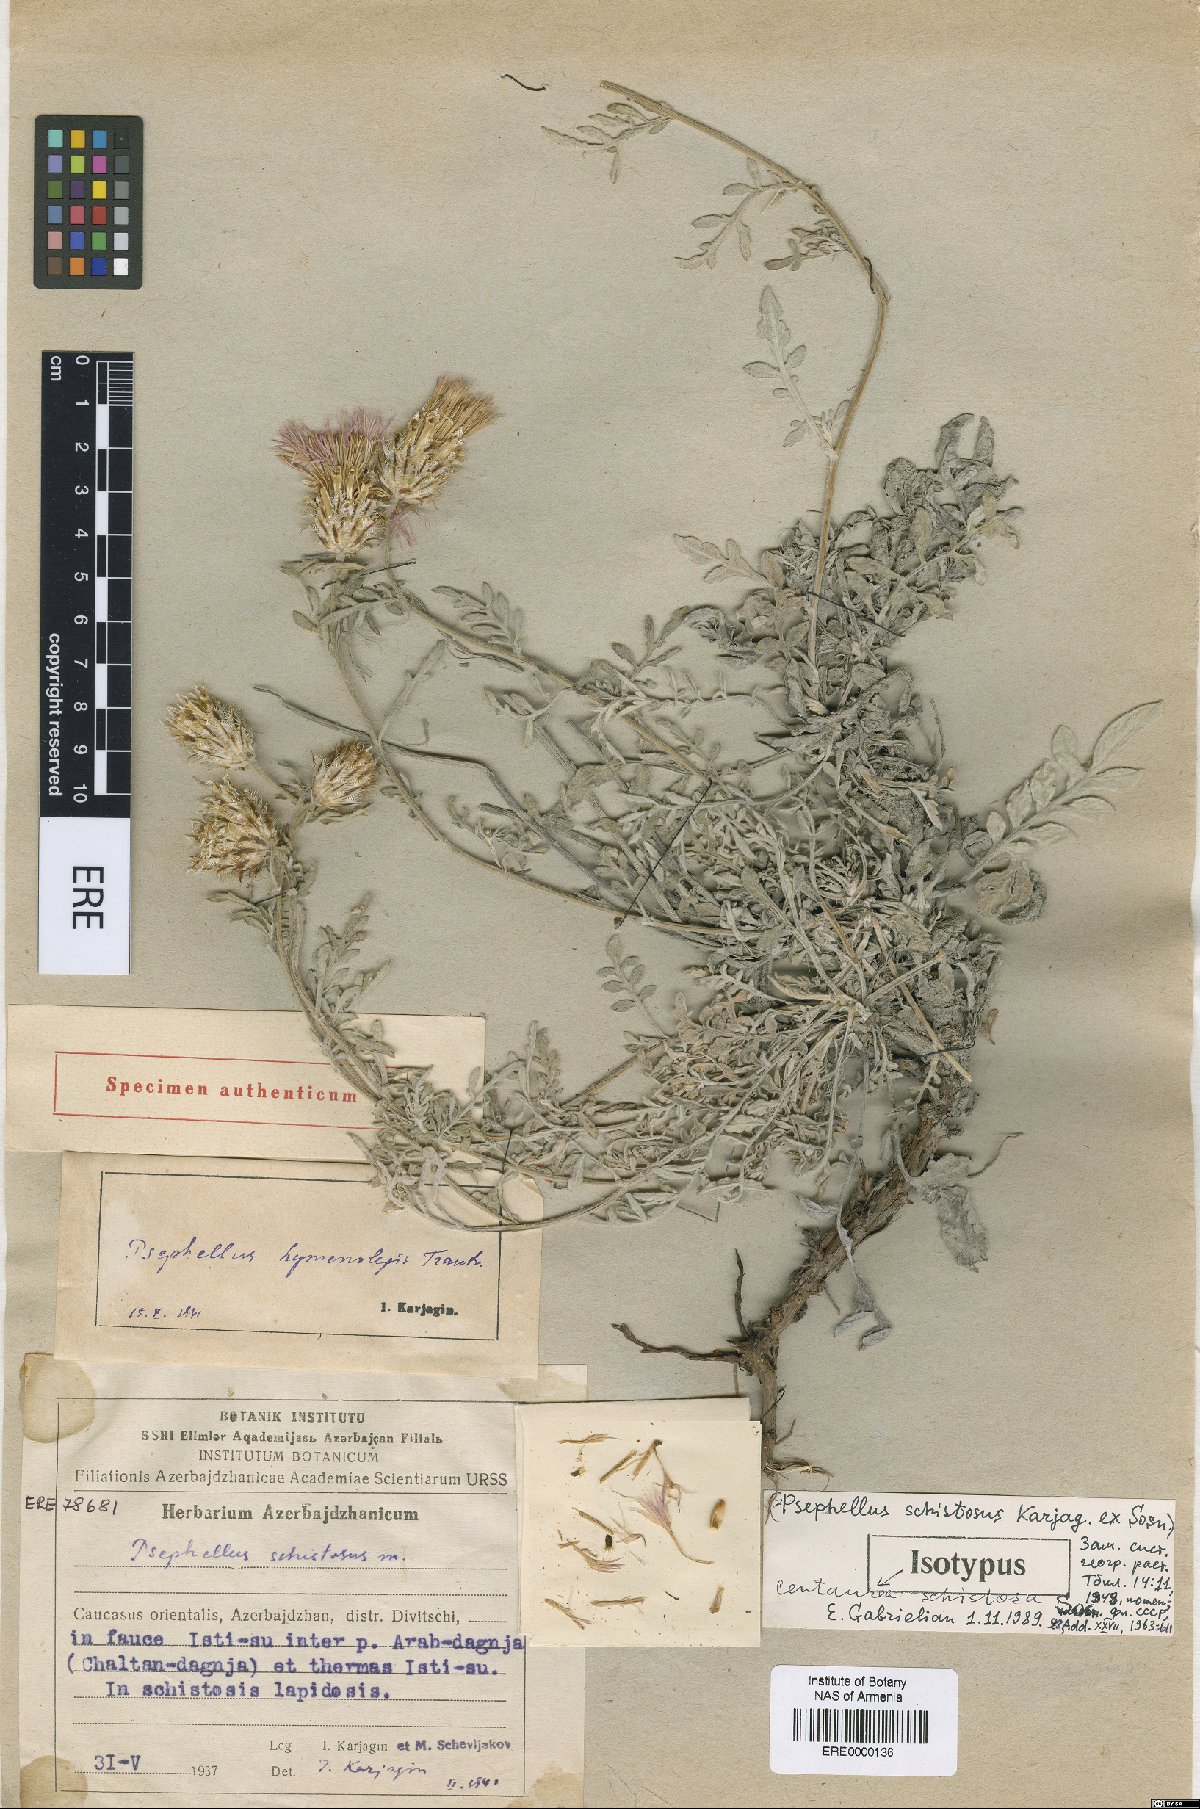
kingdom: Plantae
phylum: Tracheophyta
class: Magnoliopsida
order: Asterales
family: Asteraceae
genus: Psephellus
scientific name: Psephellus schistosus
